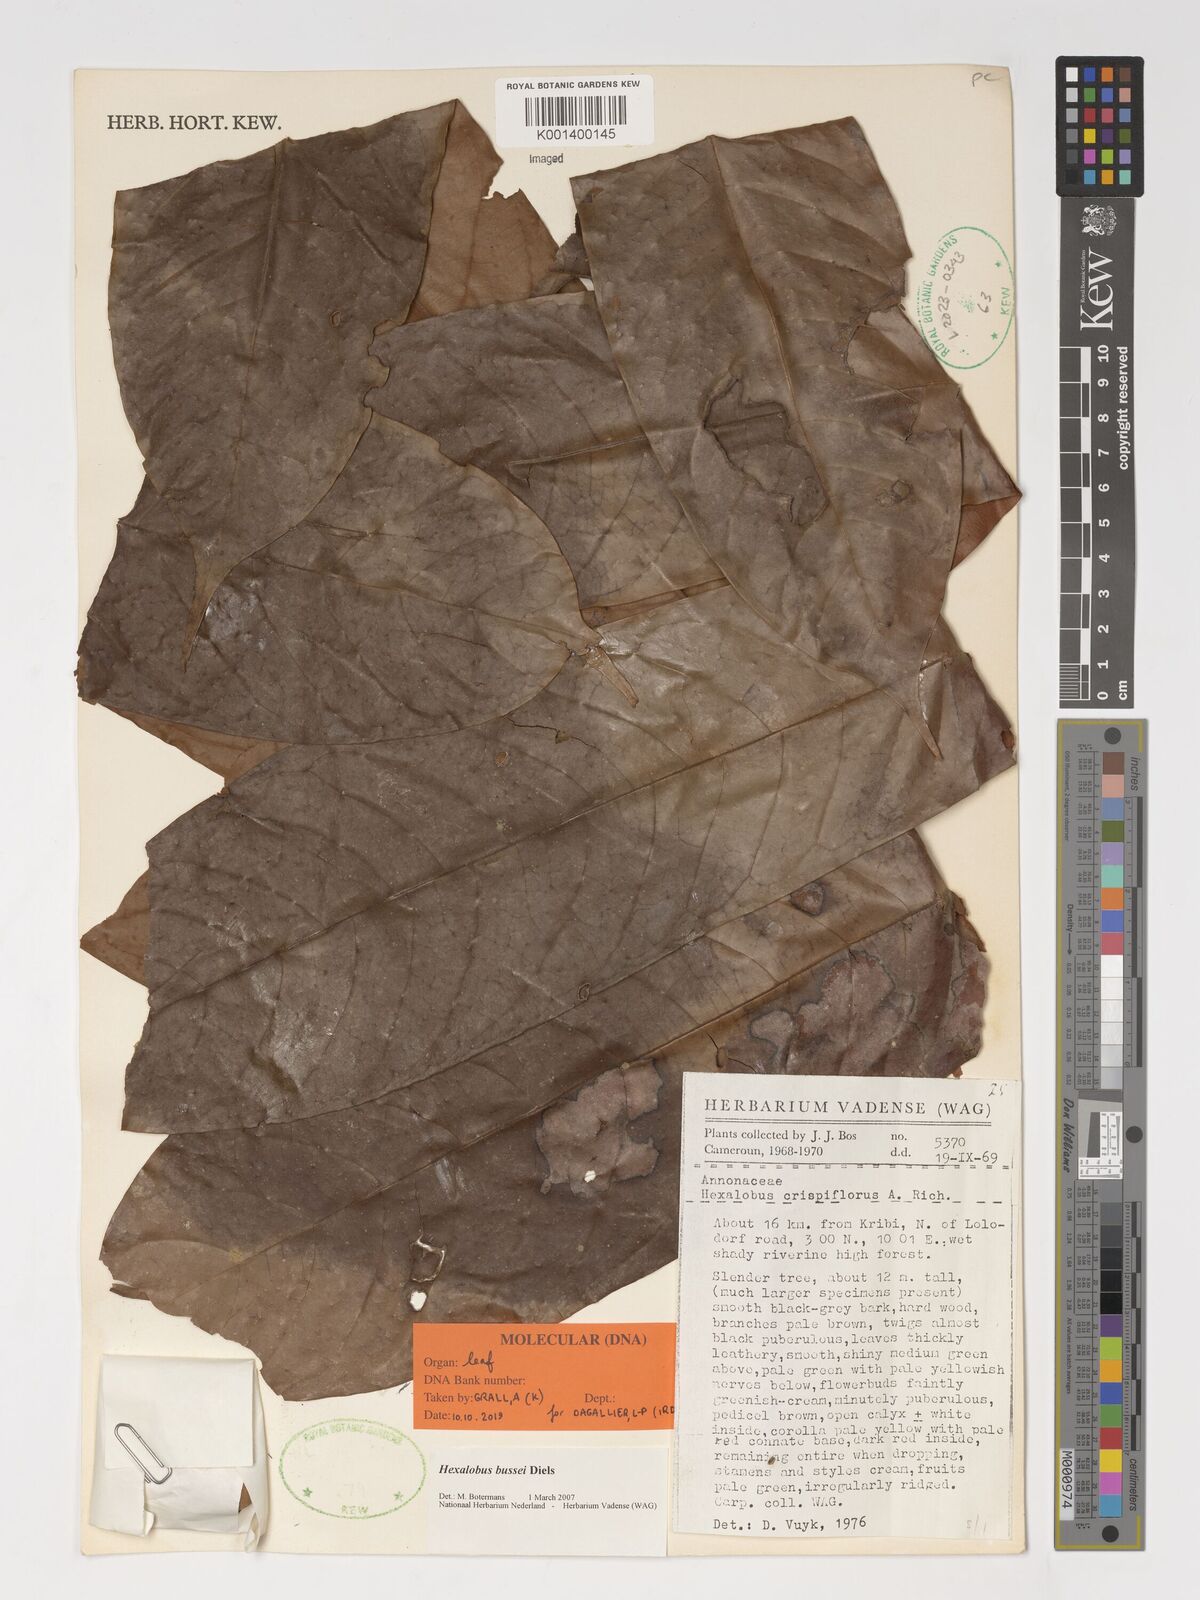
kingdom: Plantae
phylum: Tracheophyta
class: Magnoliopsida
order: Magnoliales
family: Annonaceae
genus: Hexalobus
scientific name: Hexalobus bussei
